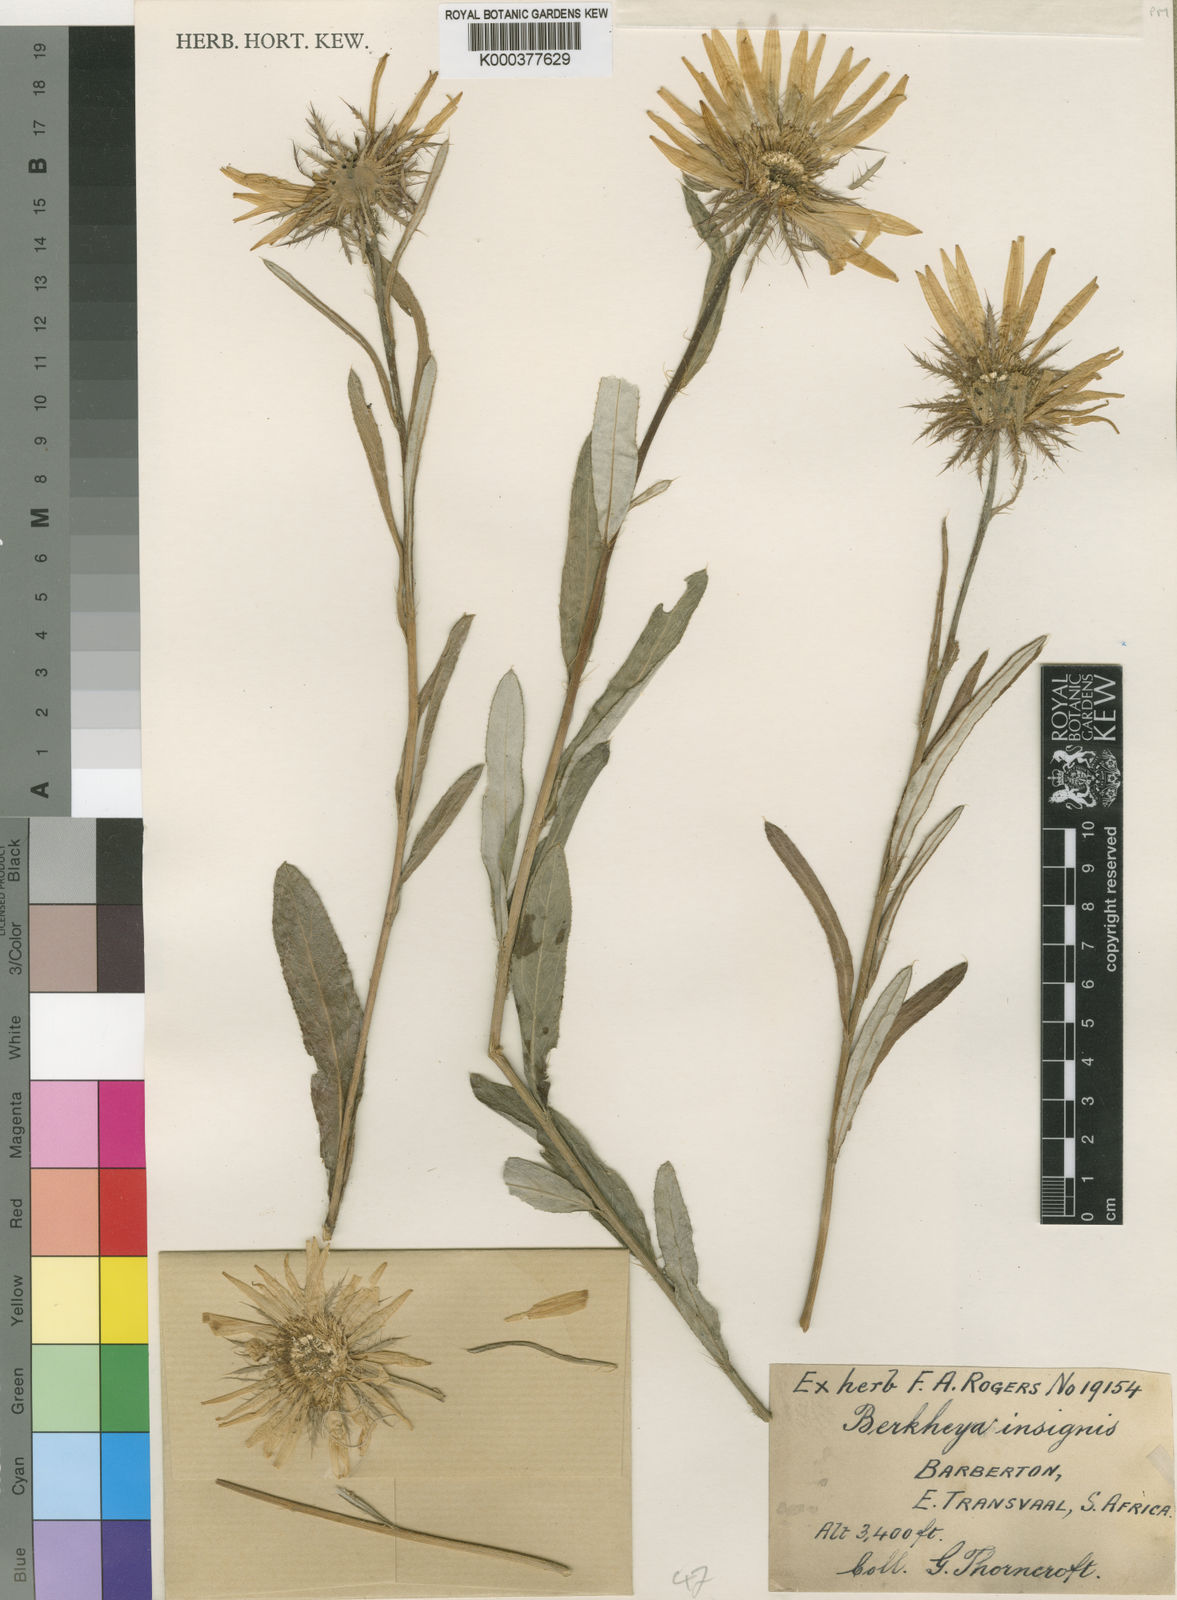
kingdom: Plantae
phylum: Tracheophyta
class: Magnoliopsida
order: Asterales
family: Asteraceae
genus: Berkheya
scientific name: Berkheya
